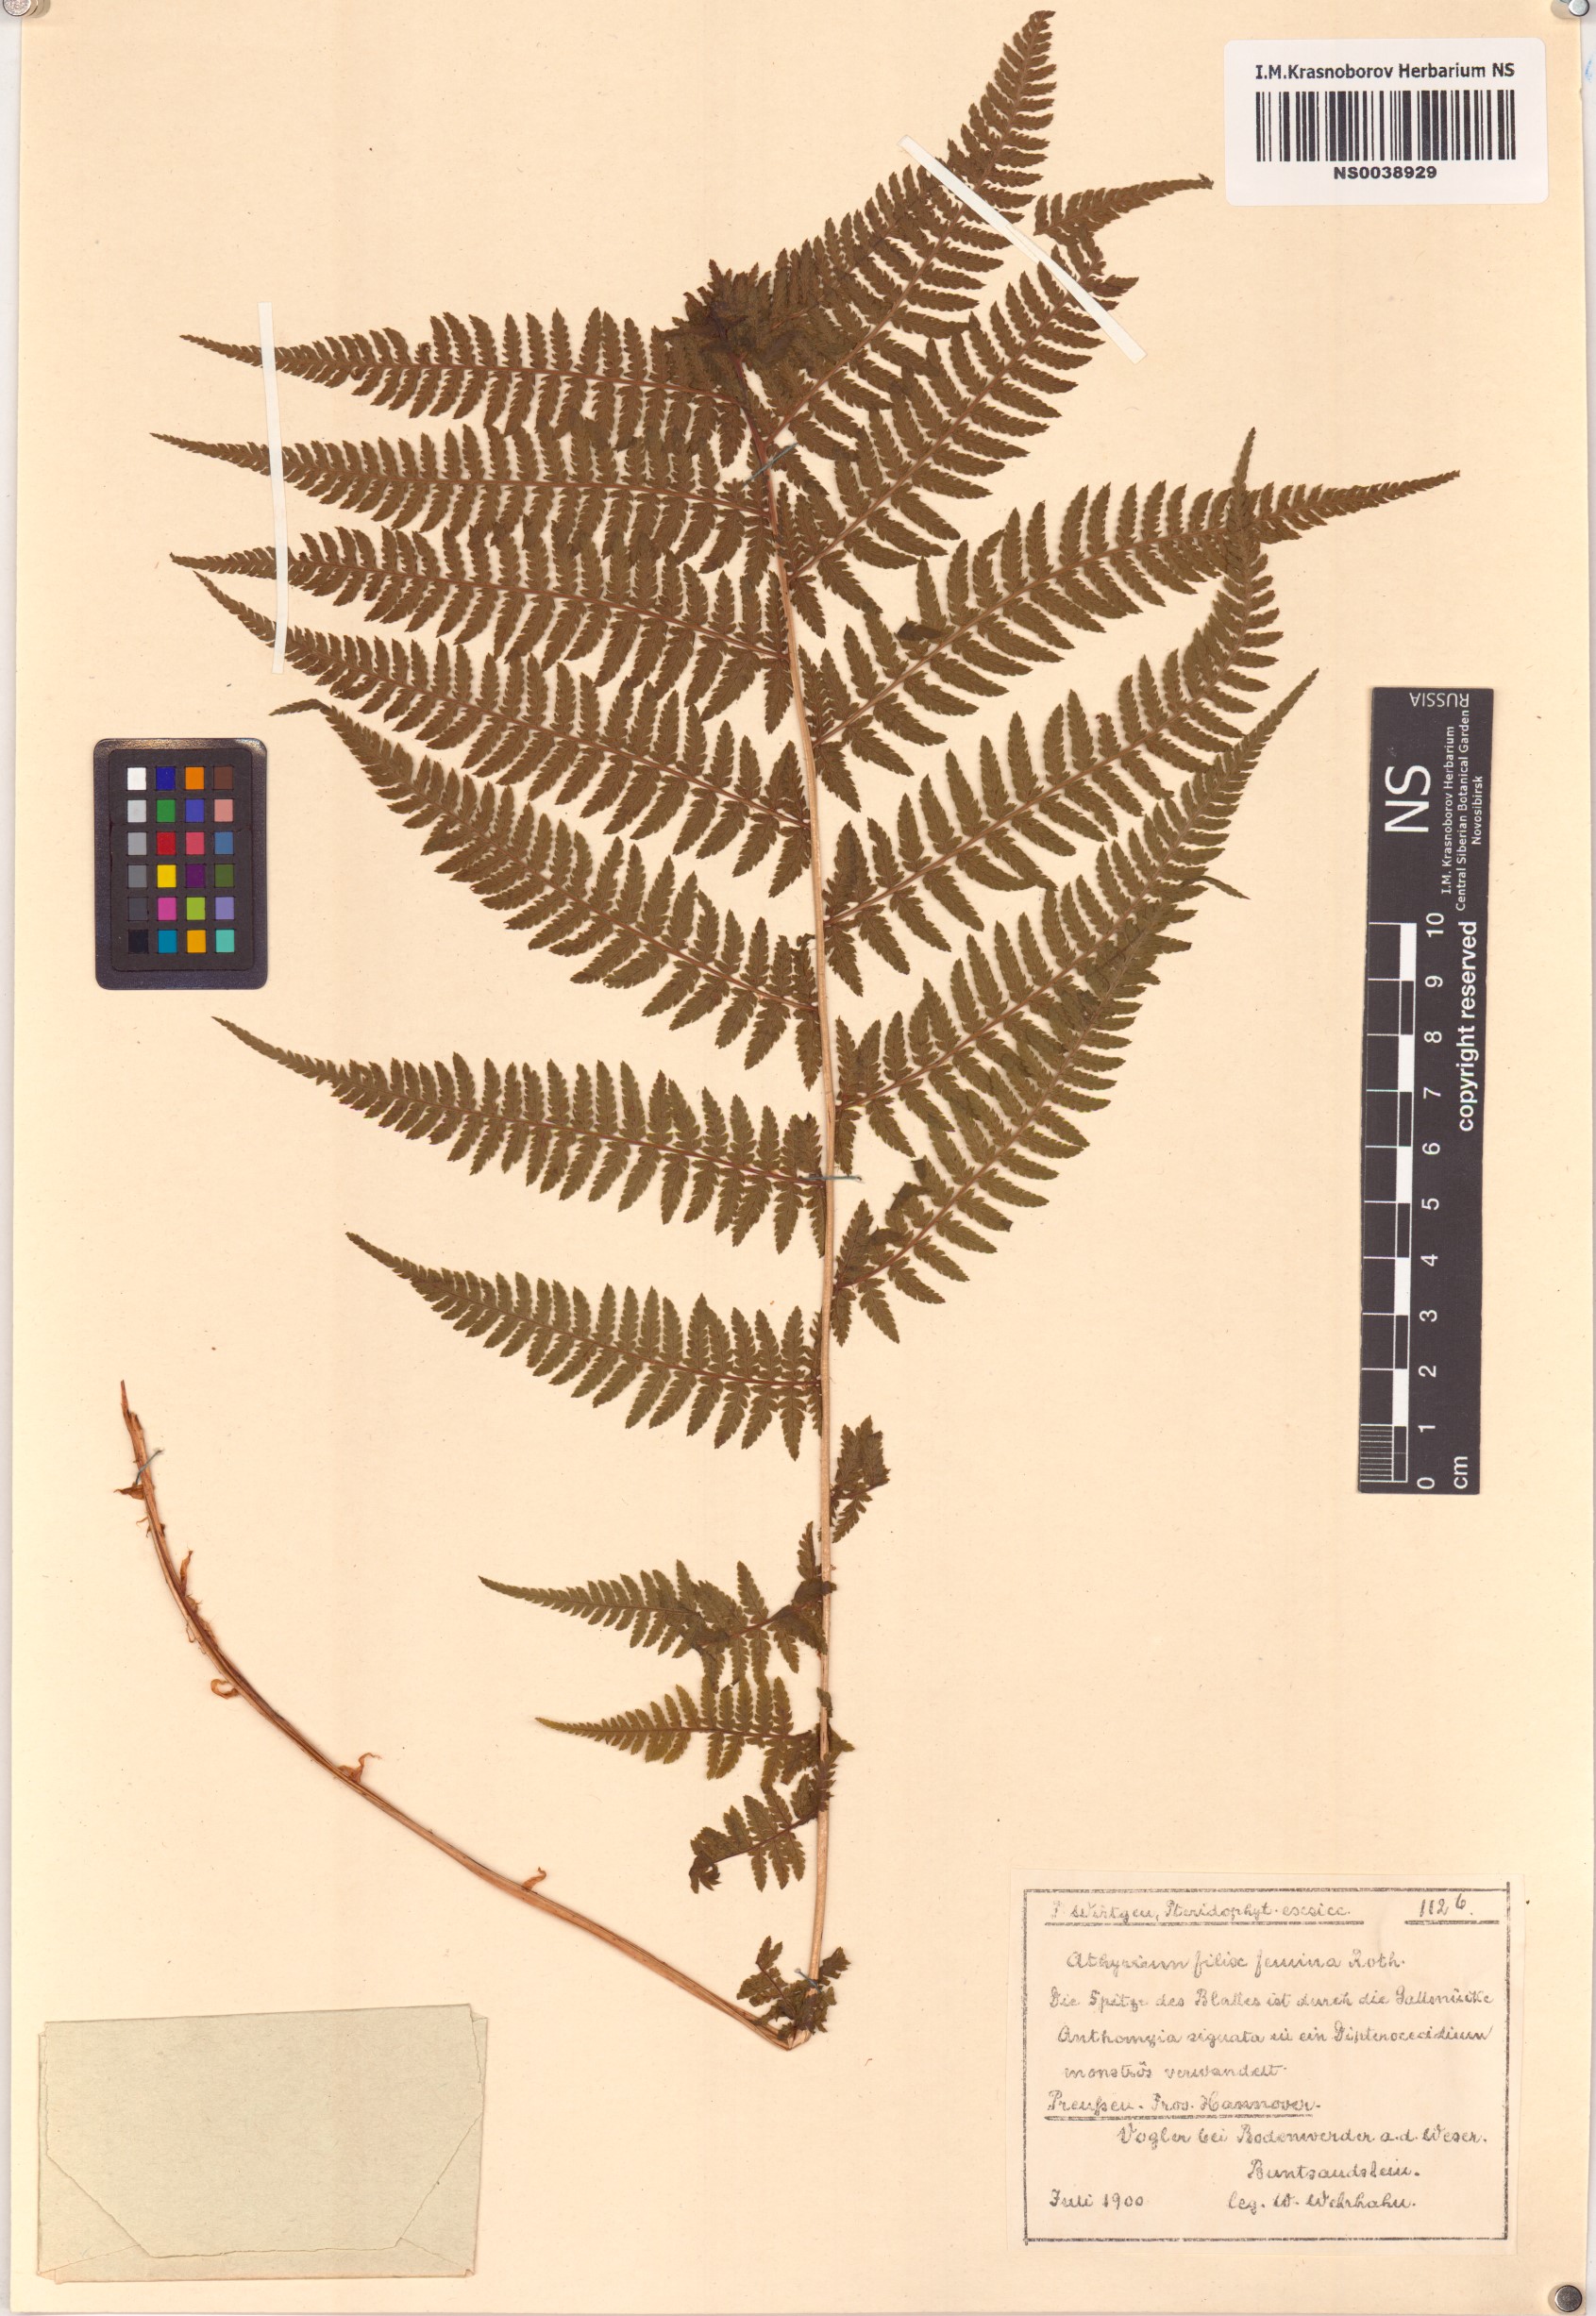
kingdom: Plantae
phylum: Tracheophyta
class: Polypodiopsida
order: Polypodiales
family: Athyriaceae
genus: Athyrium
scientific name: Athyrium filix-femina
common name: Lady fern
